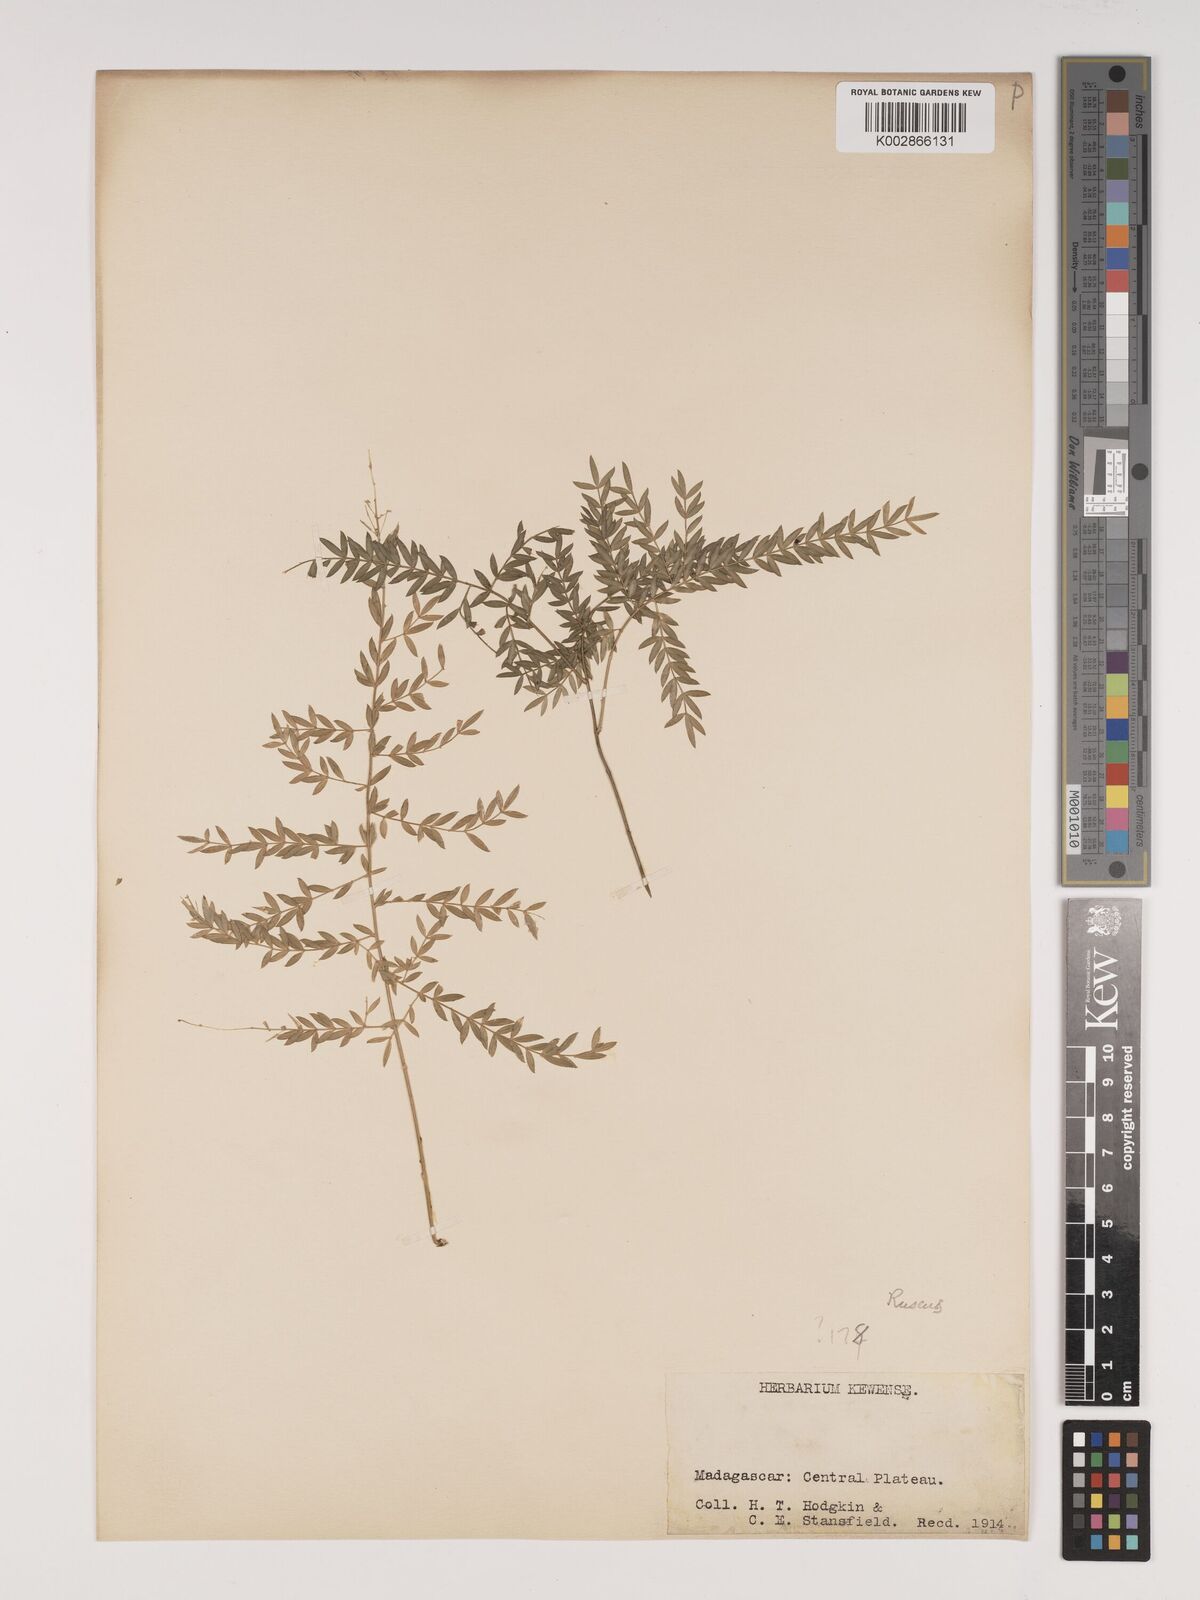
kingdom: Plantae
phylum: Tracheophyta
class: Liliopsida
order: Asparagales
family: Asparagaceae
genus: Asparagus
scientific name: Asparagus simulans
